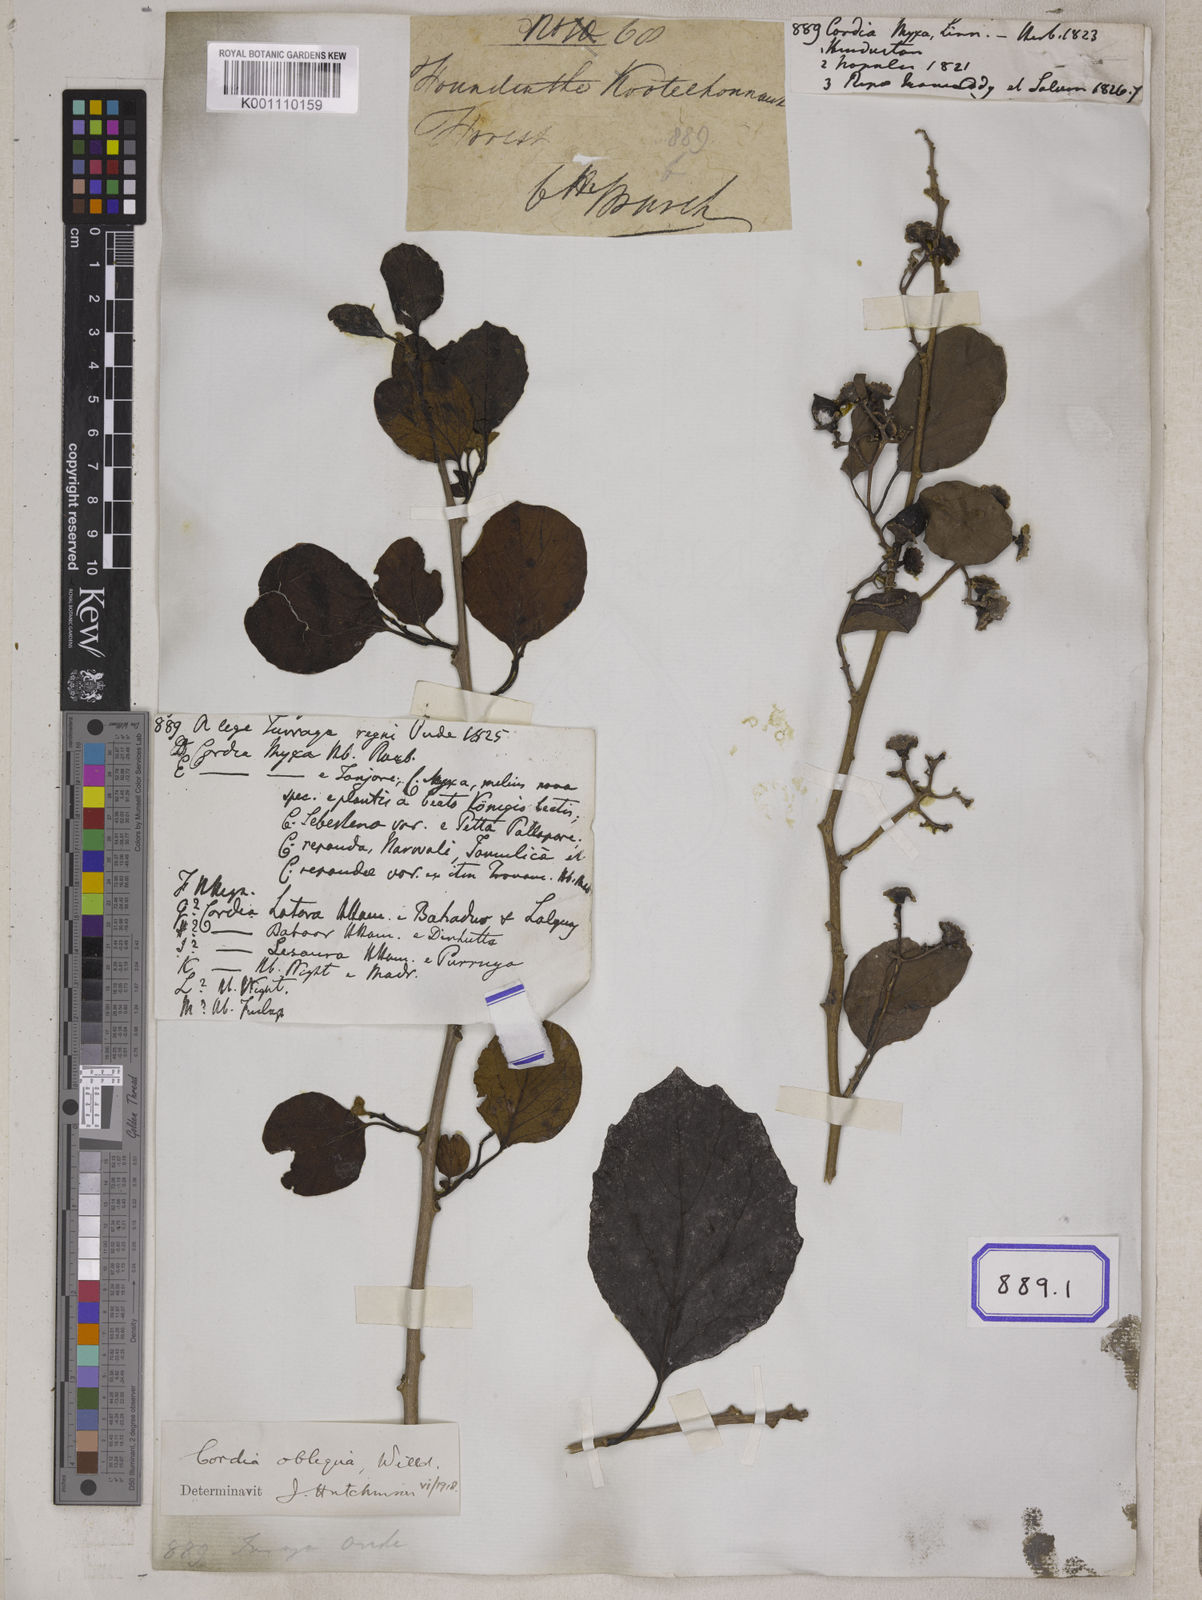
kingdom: Plantae
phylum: Tracheophyta
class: Magnoliopsida
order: Boraginales
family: Cordiaceae
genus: Cordia
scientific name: Cordia myxa
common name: Assyrian plum
